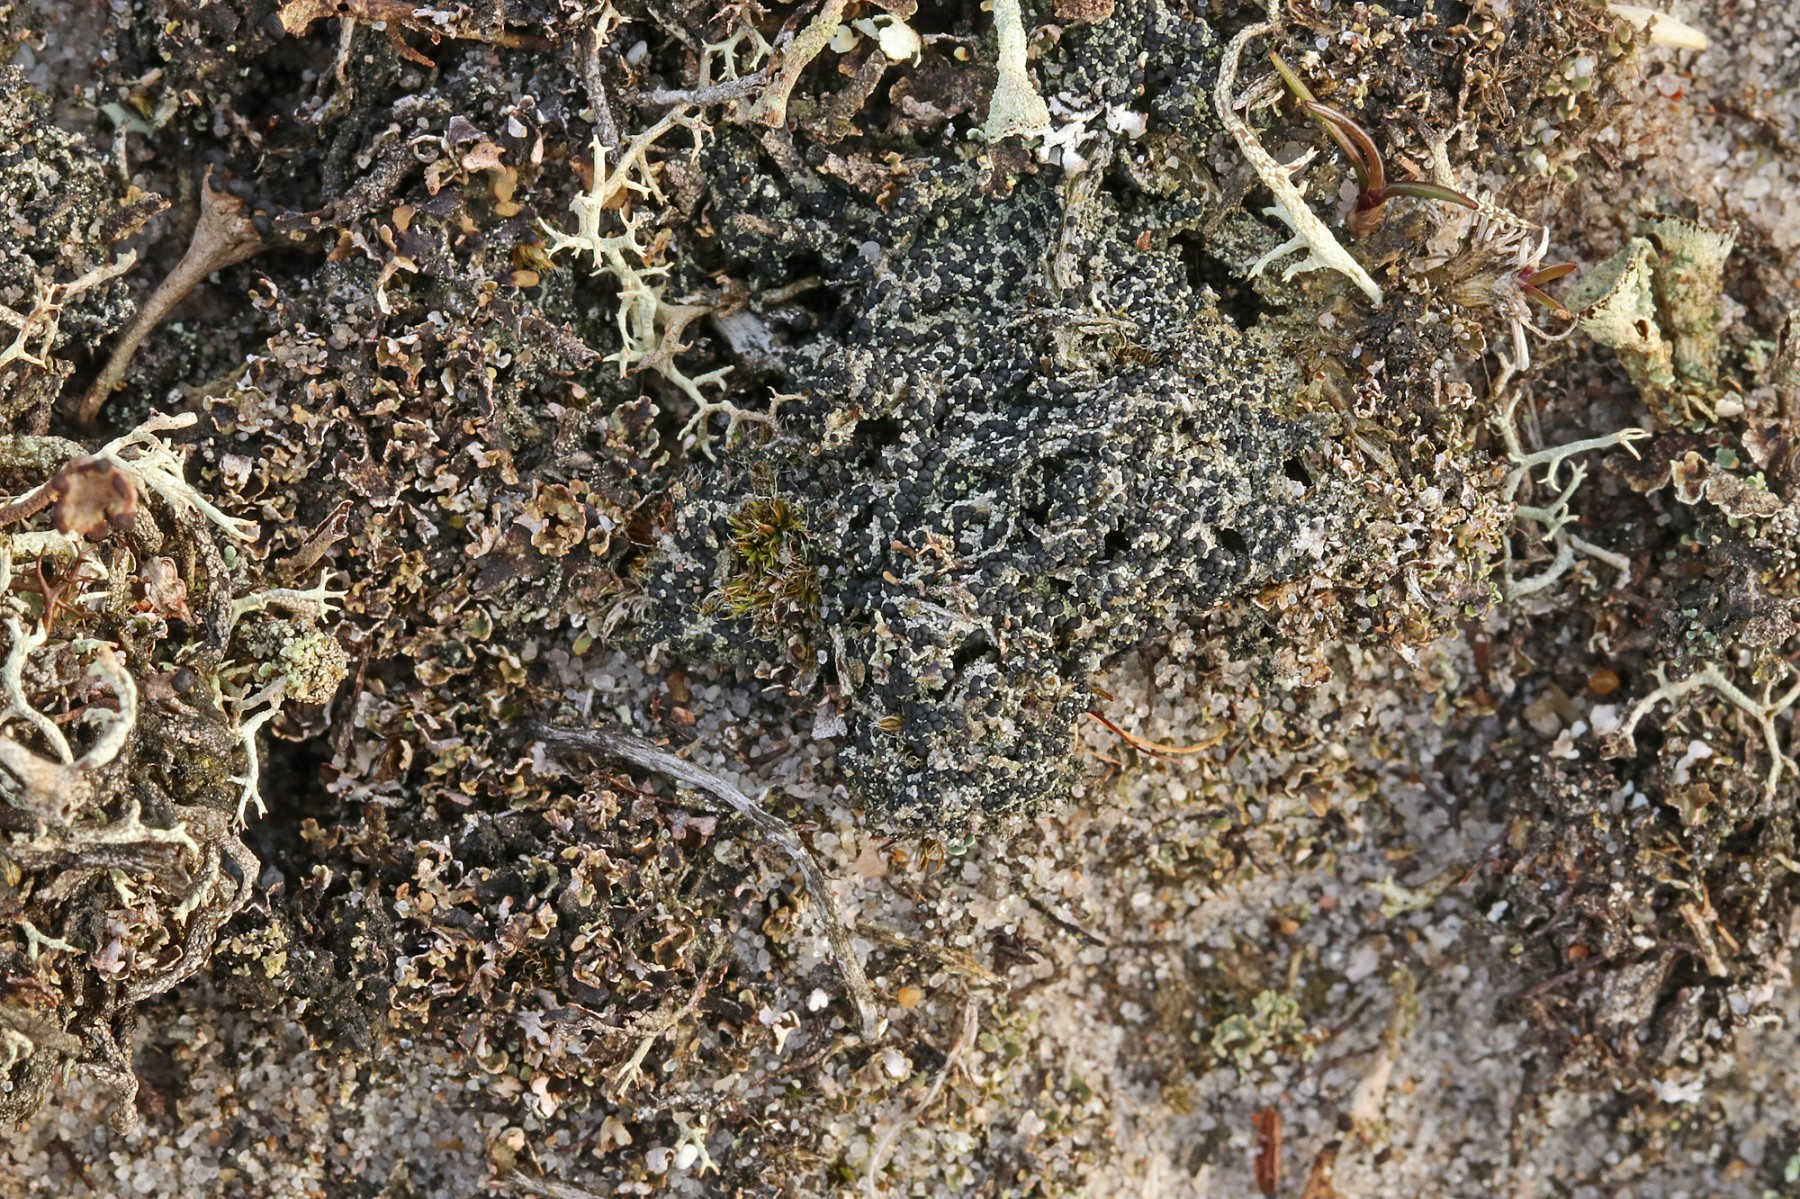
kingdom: Fungi
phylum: Ascomycota
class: Lecanoromycetes
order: Lecanorales
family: Byssolomataceae
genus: Micarea
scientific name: Micarea lignaria
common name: tørve-knaplav
